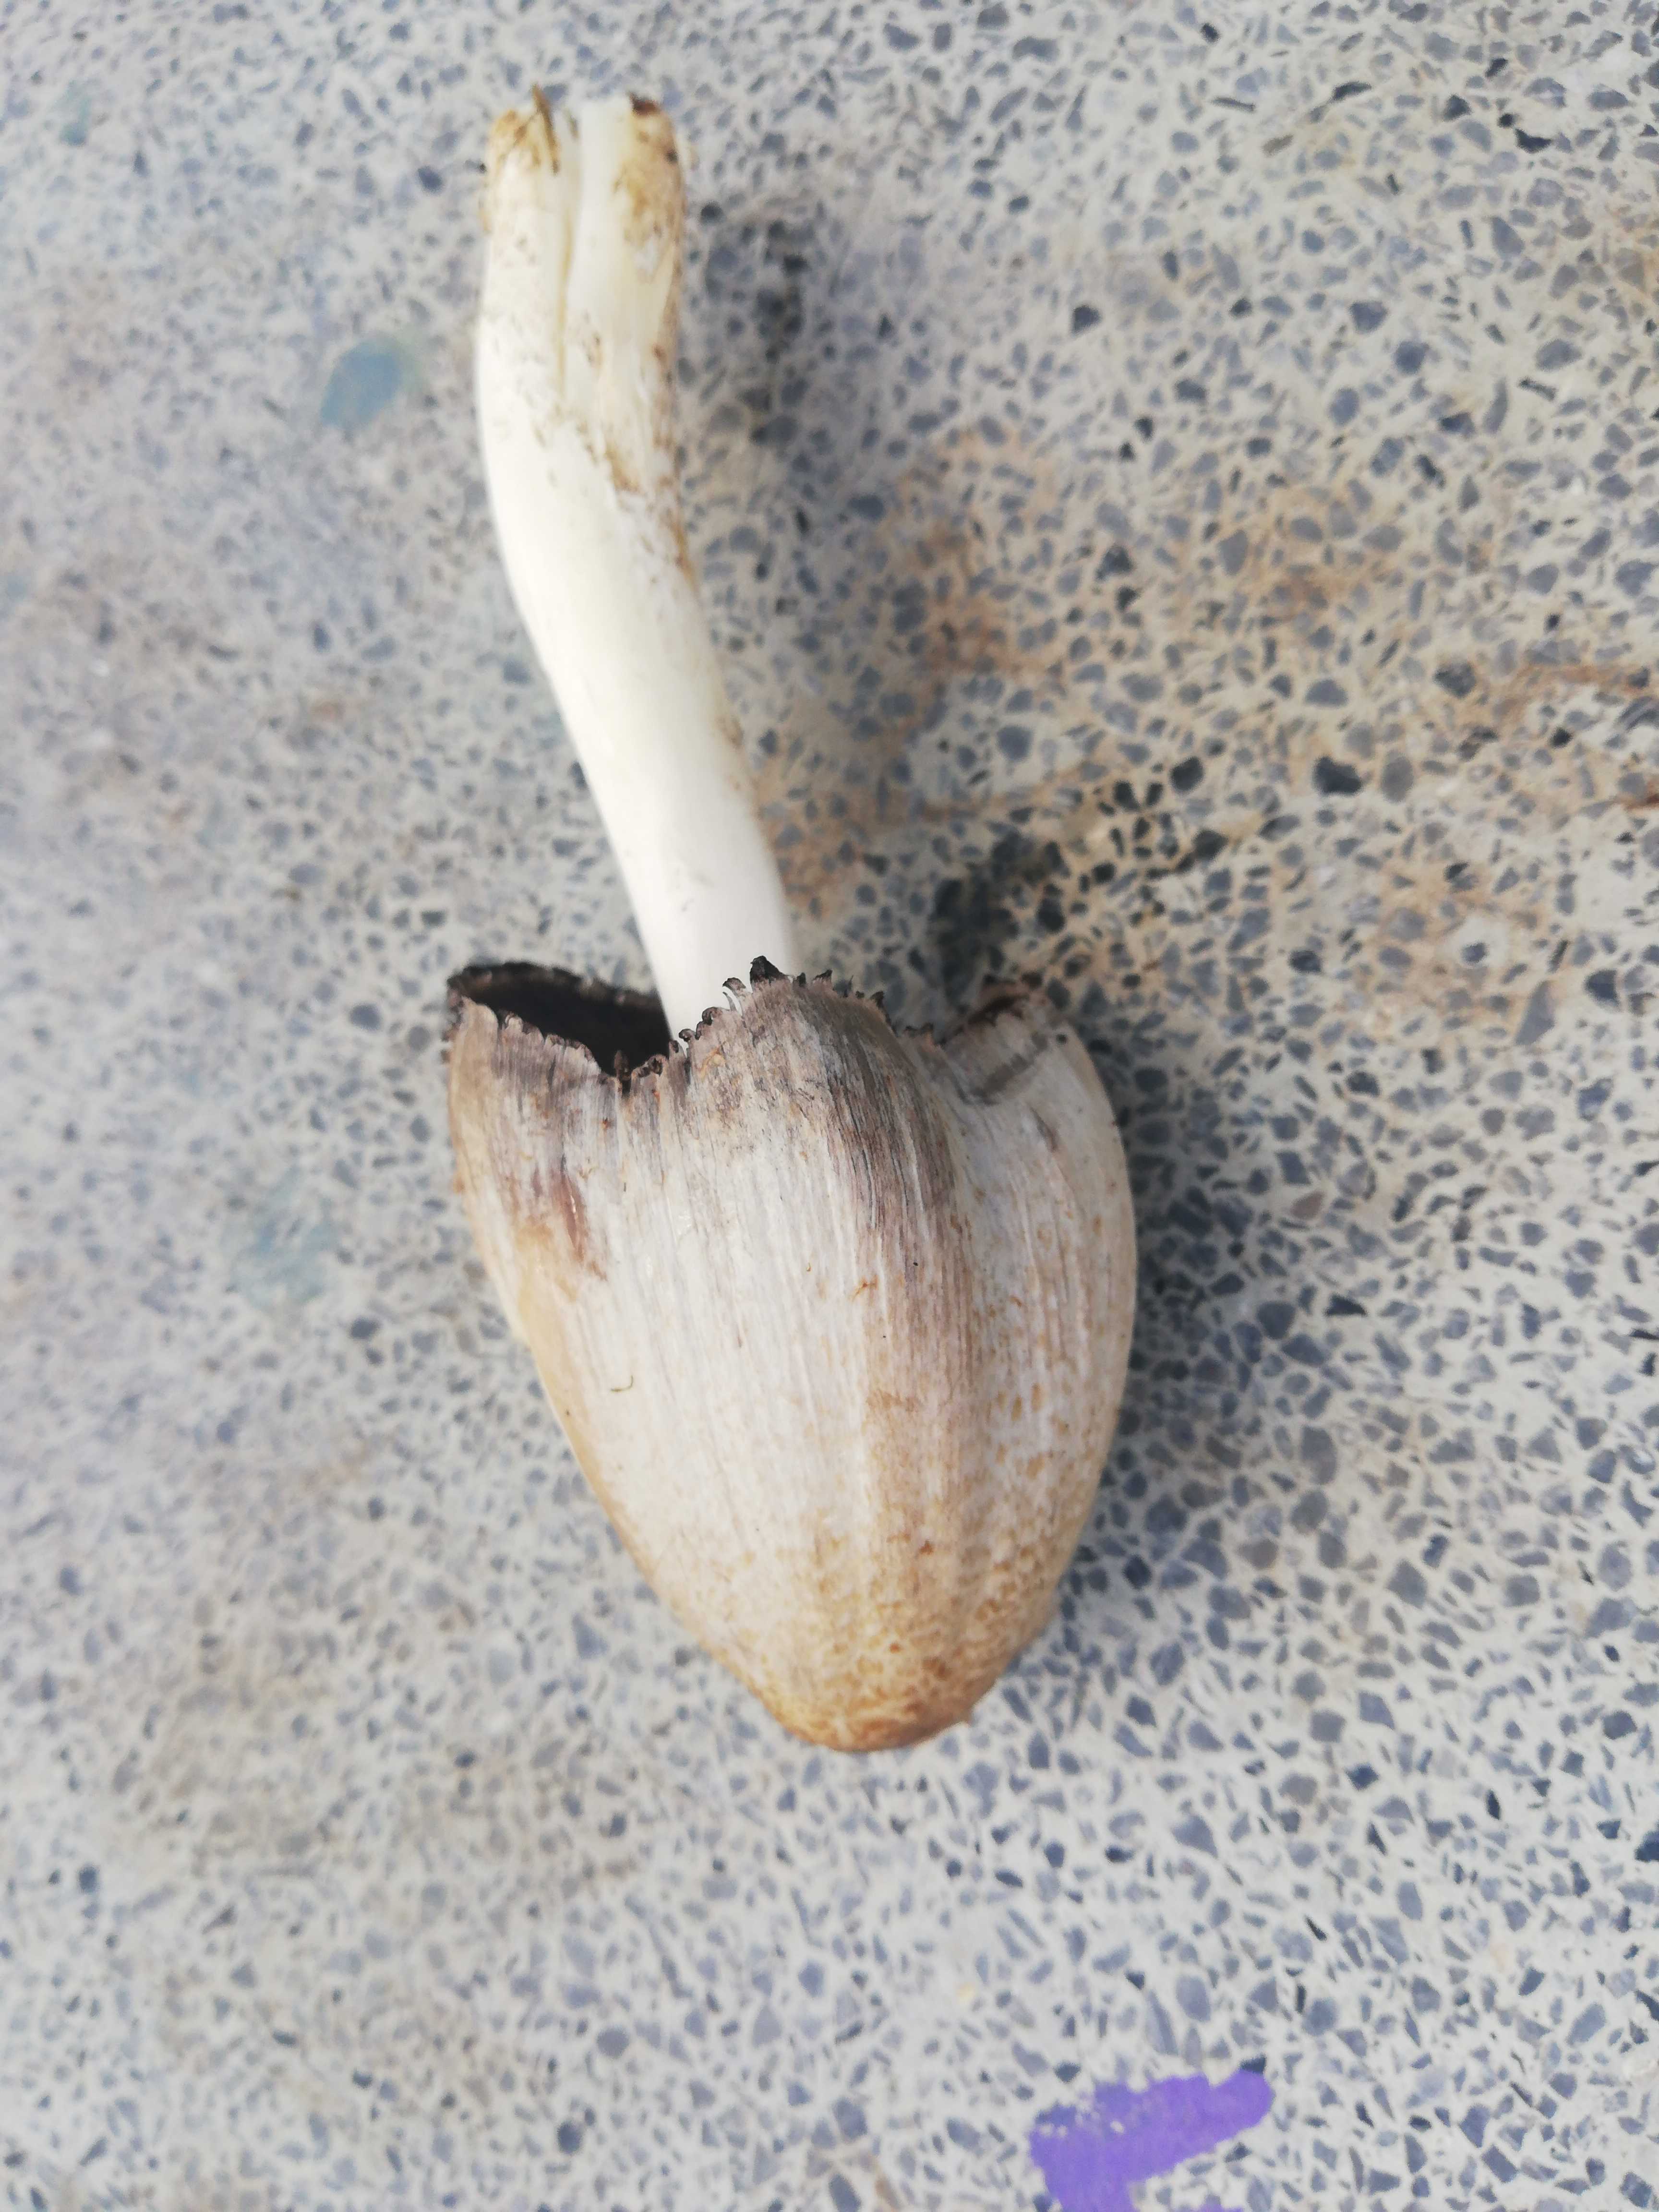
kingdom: Fungi
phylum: Basidiomycota
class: Agaricomycetes
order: Agaricales
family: Psathyrellaceae
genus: Coprinopsis
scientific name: Coprinopsis romagnesiana
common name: brunskællet blækhat
